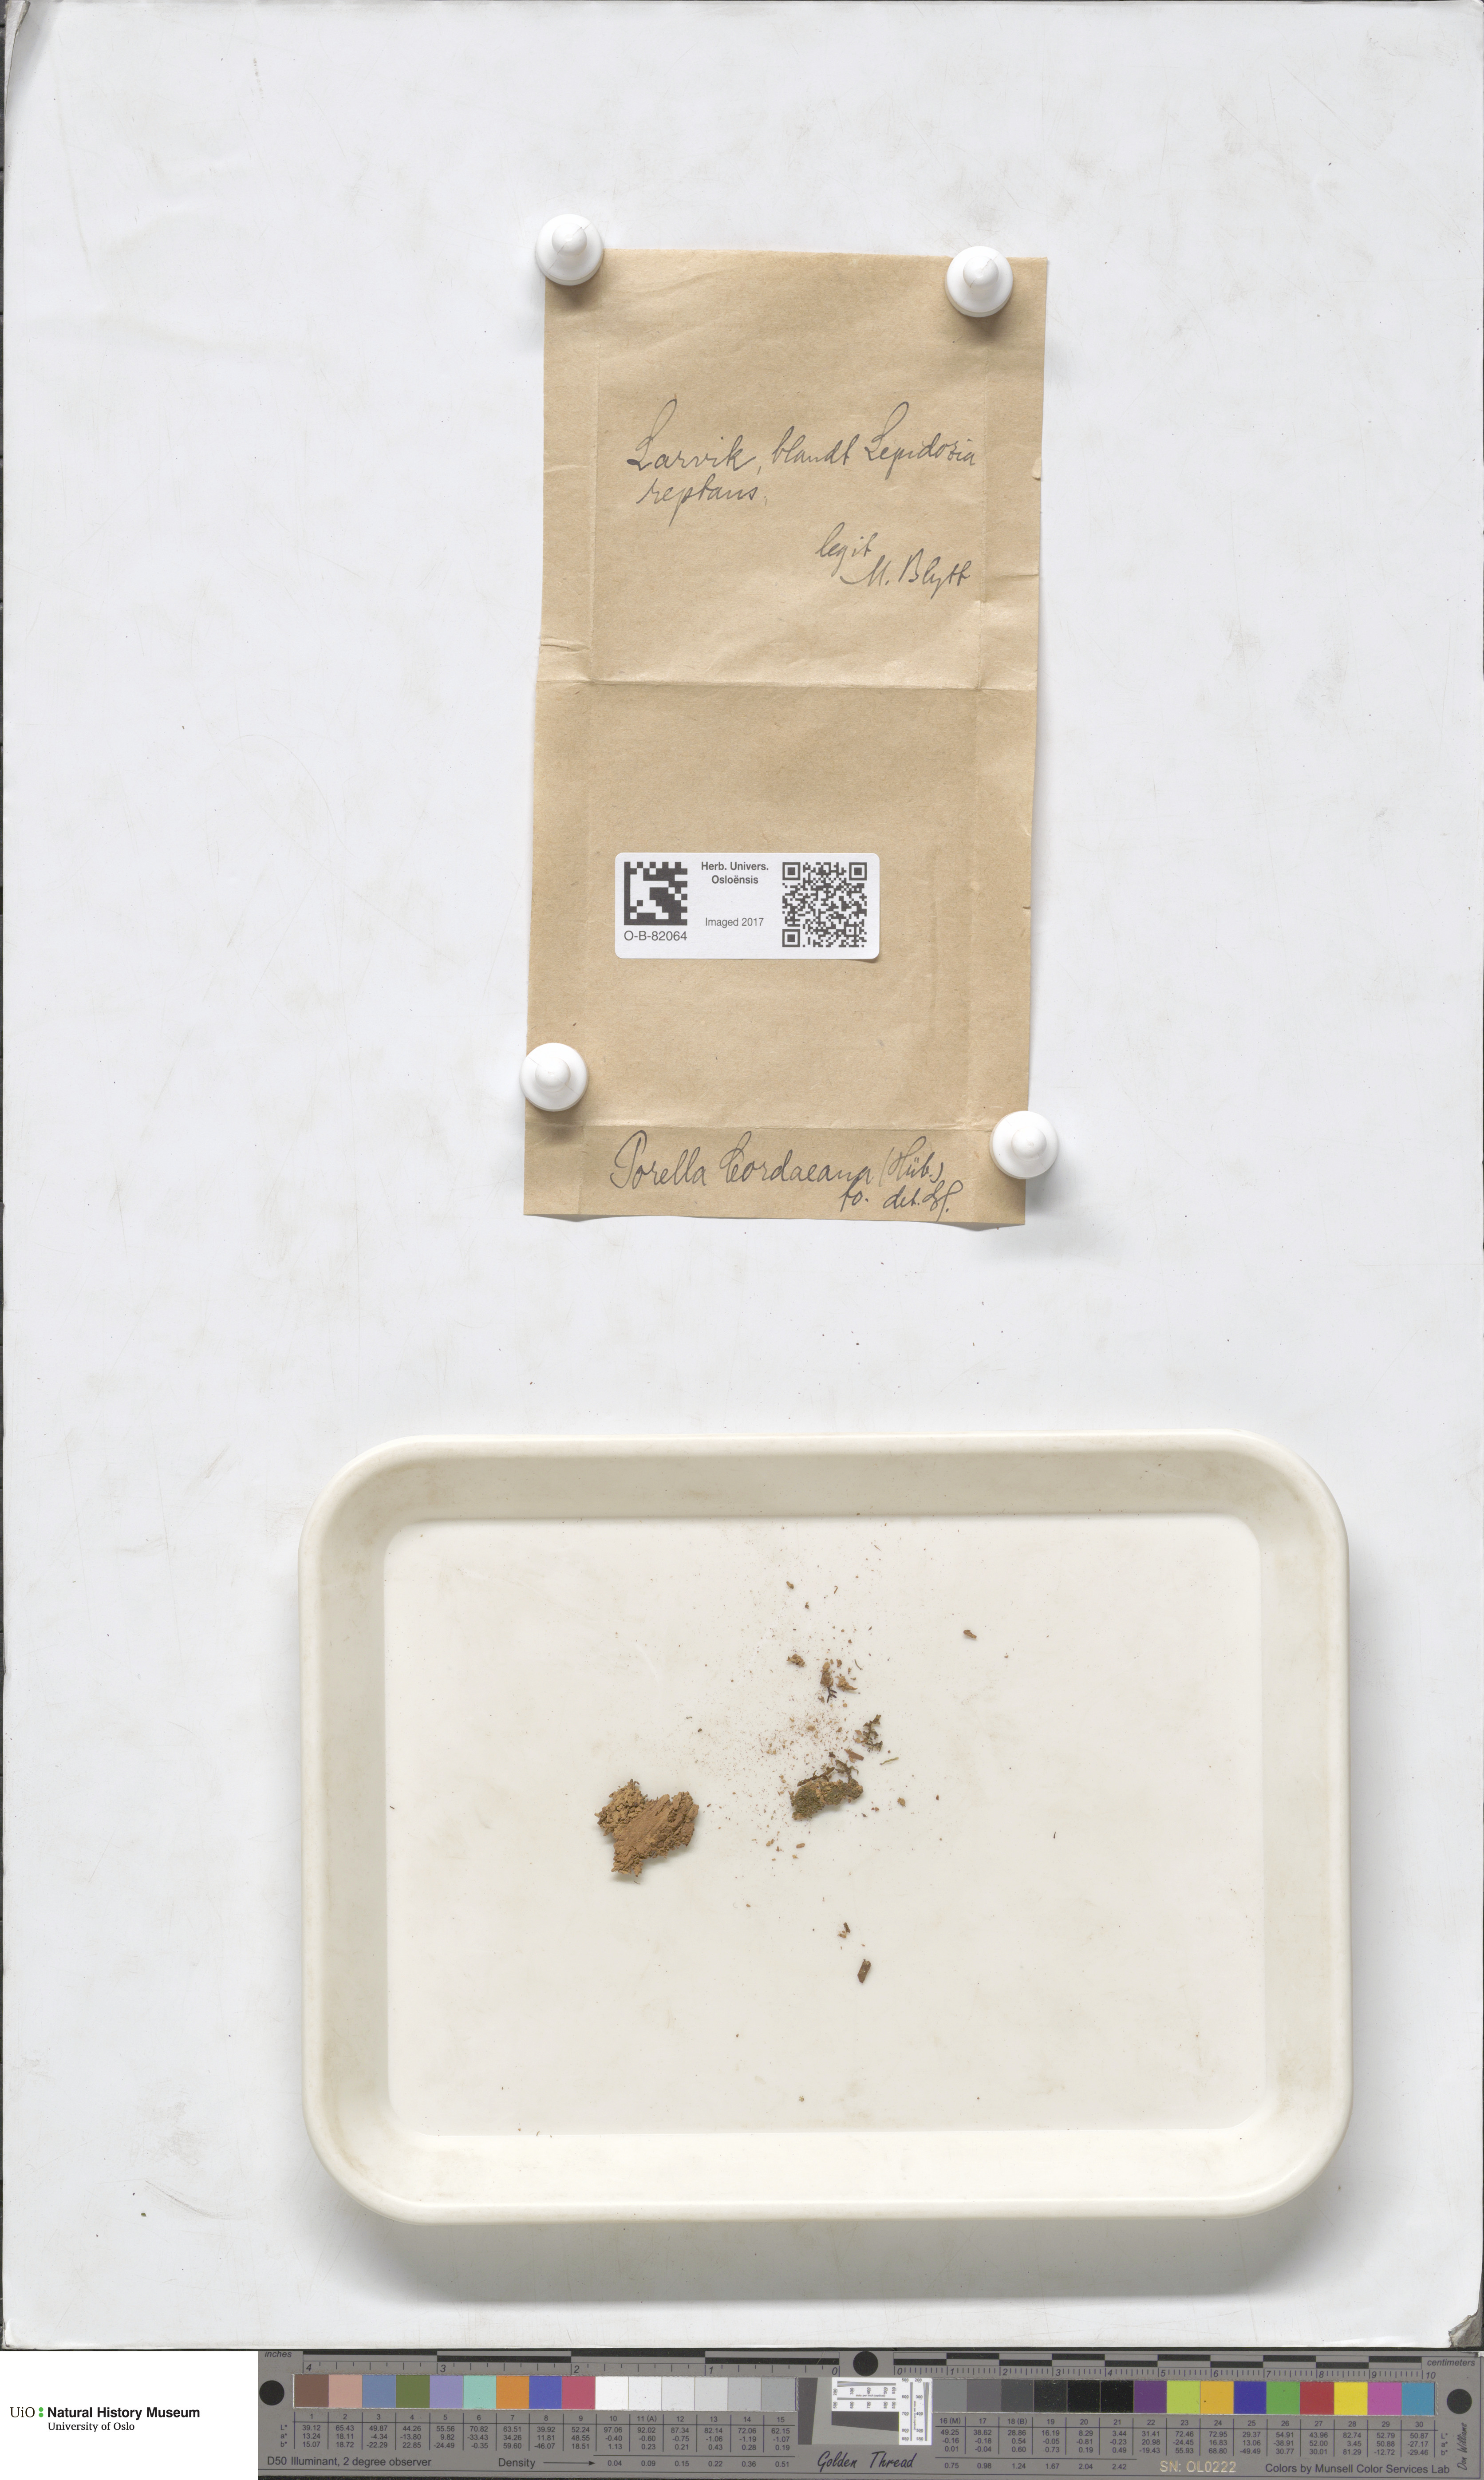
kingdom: Plantae
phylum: Marchantiophyta
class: Jungermanniopsida
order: Porellales
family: Porellaceae
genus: Porella
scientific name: Porella cordaeana
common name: Cliff scalewort
